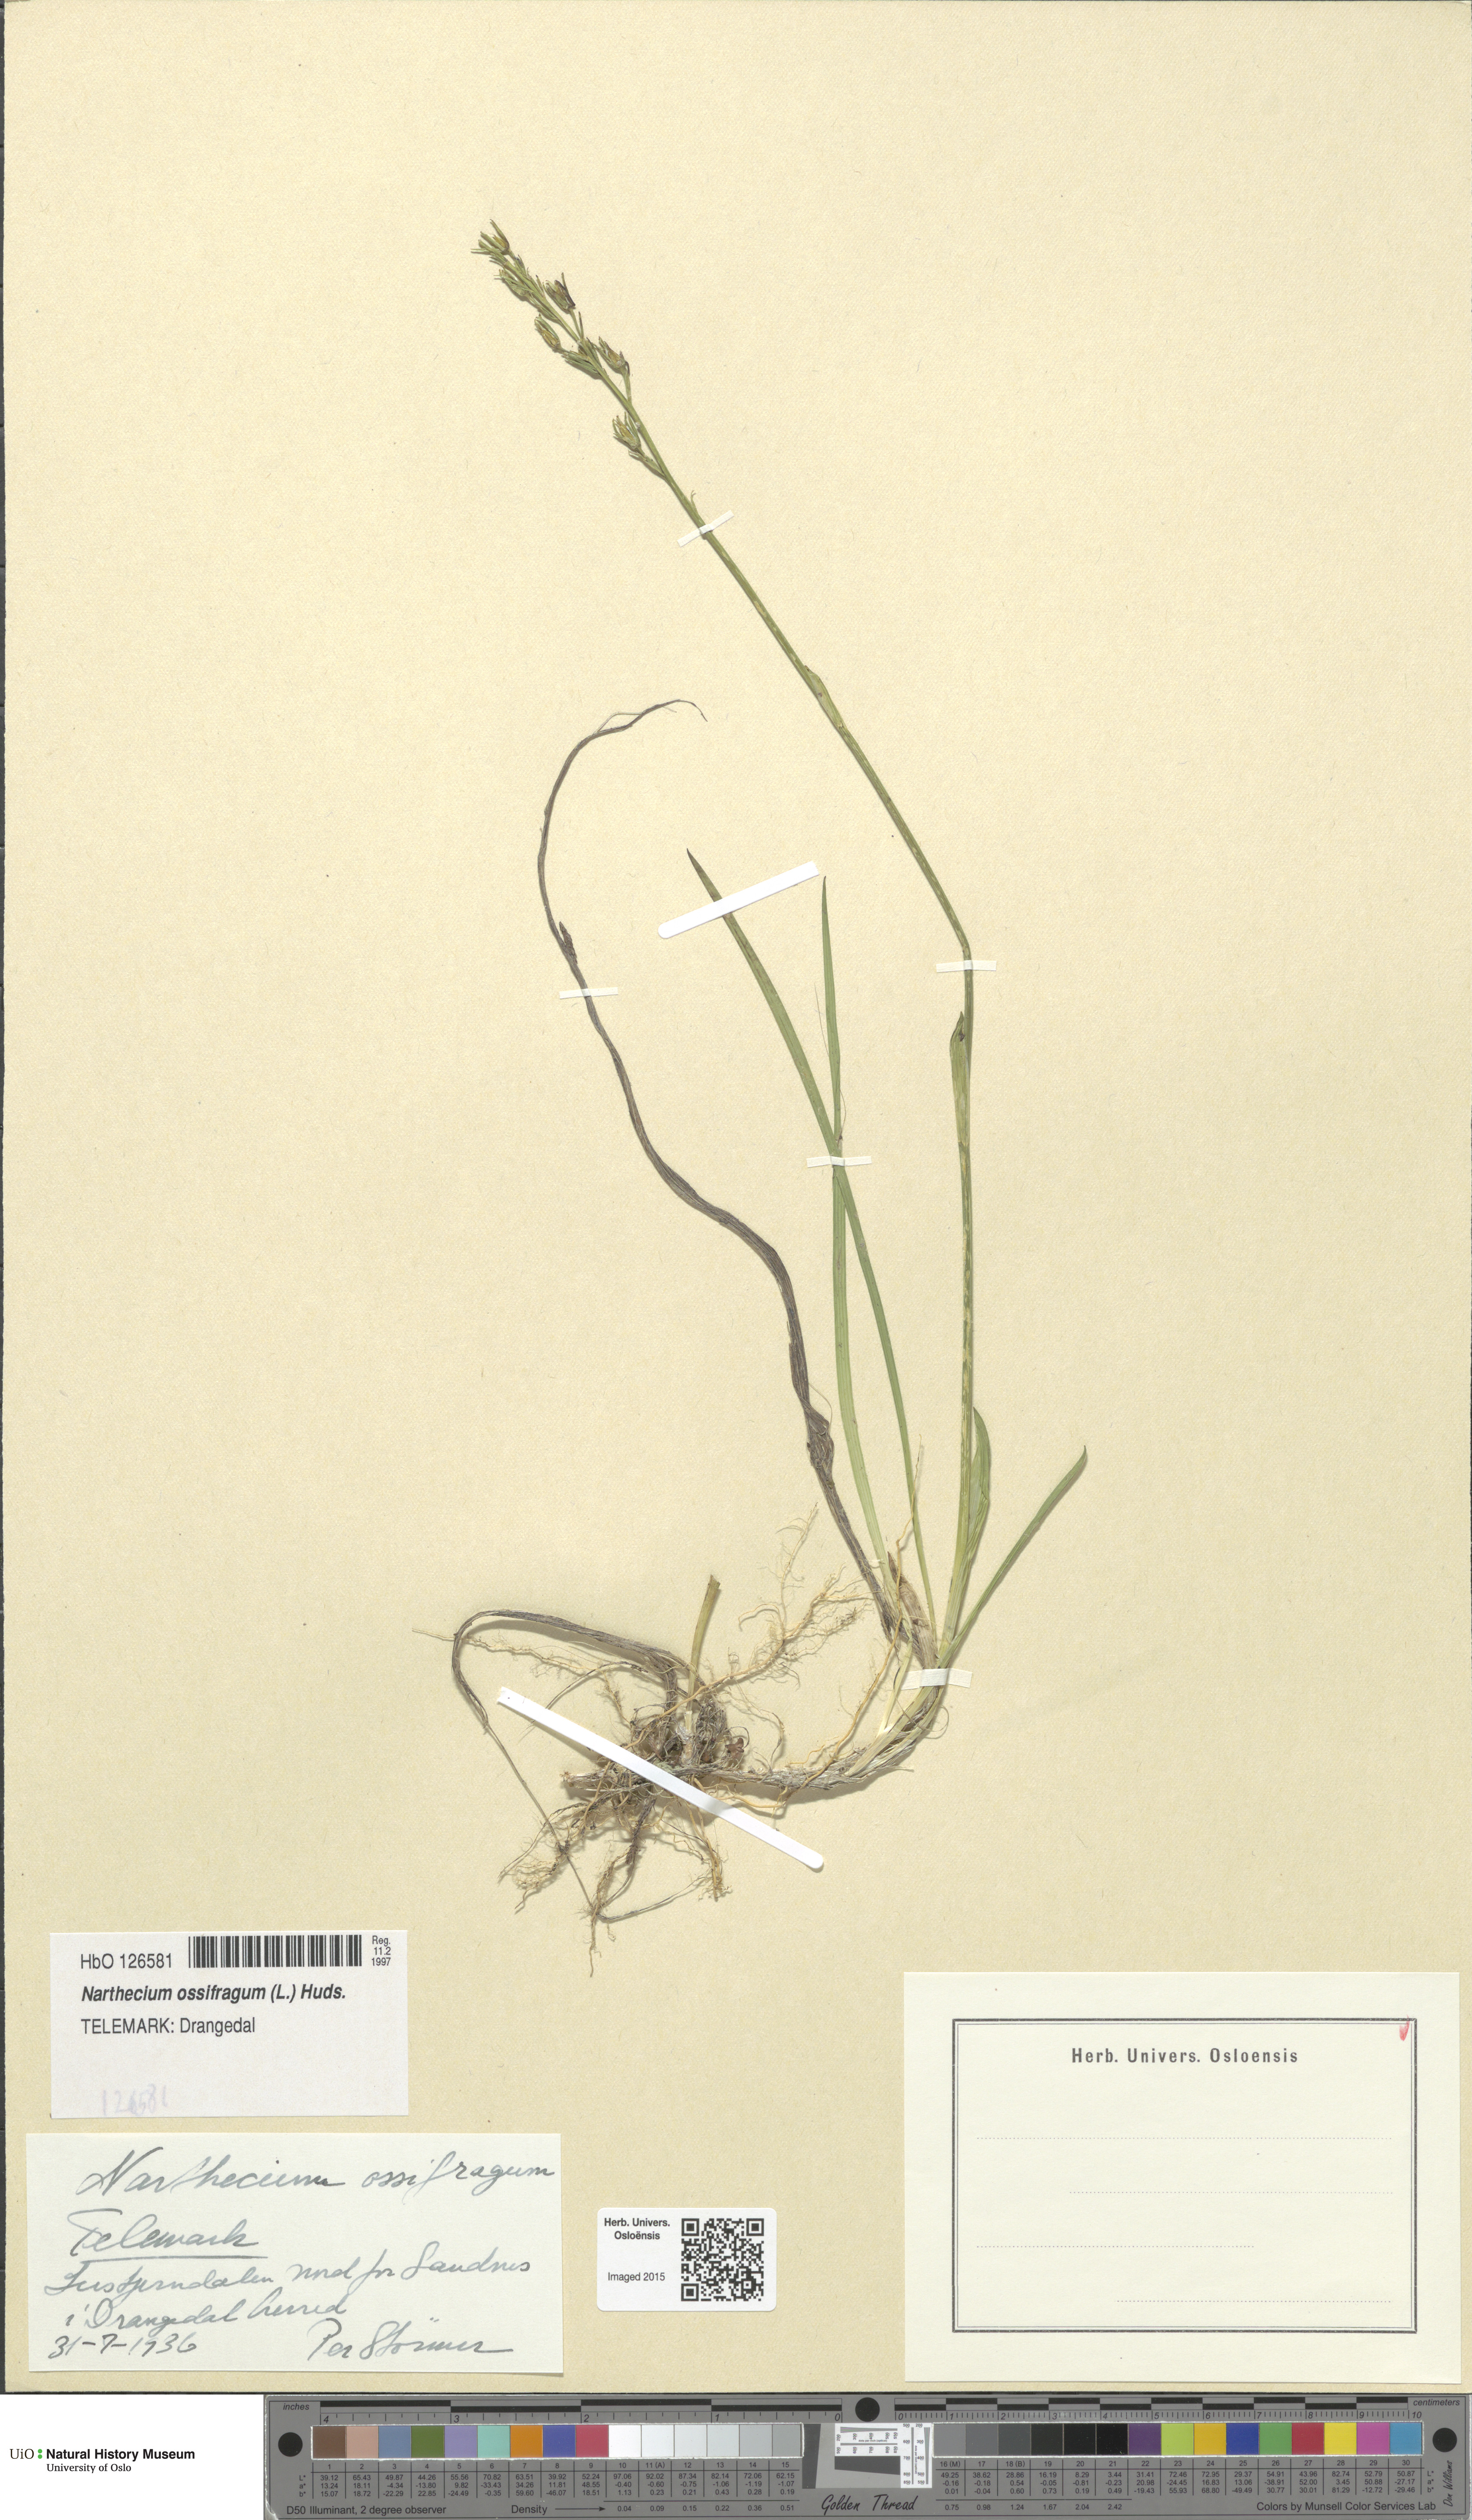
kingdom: Plantae
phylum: Tracheophyta
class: Liliopsida
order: Dioscoreales
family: Nartheciaceae
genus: Narthecium
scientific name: Narthecium ossifragum
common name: Bog asphodel
